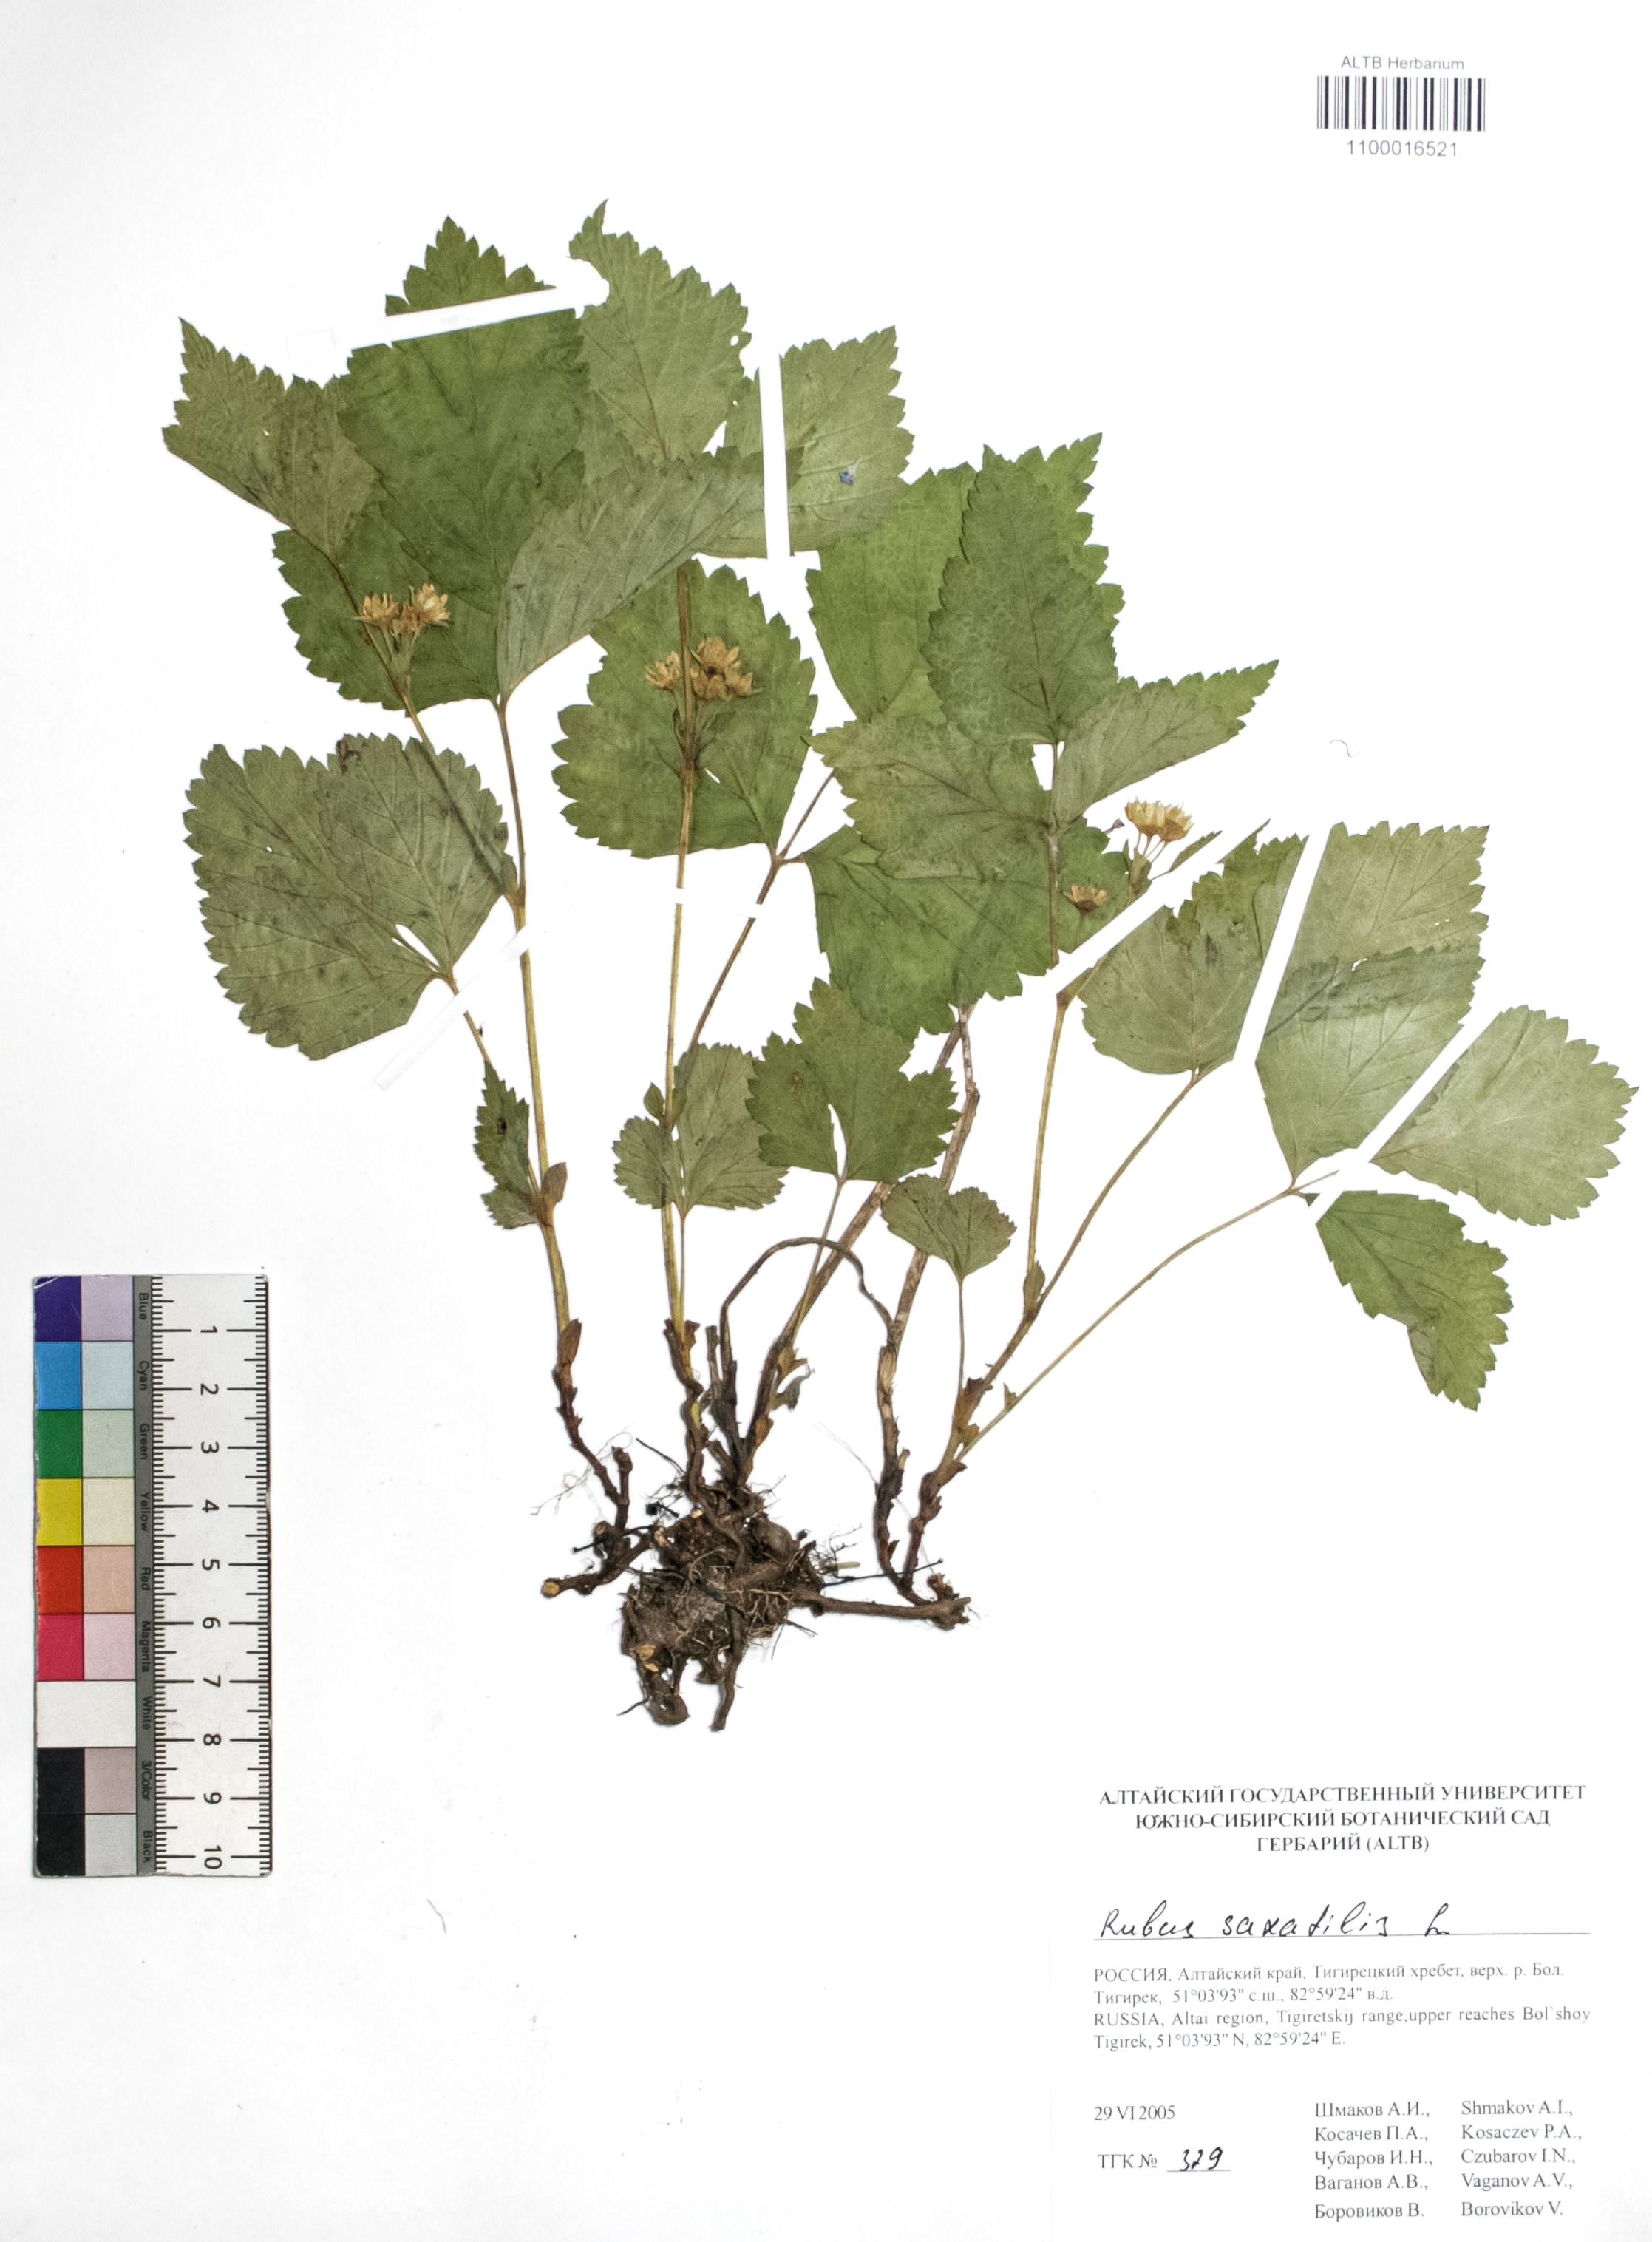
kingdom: Plantae
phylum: Tracheophyta
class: Magnoliopsida
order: Rosales
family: Rosaceae
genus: Rubus
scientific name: Rubus saxatilis
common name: Stone bramble
